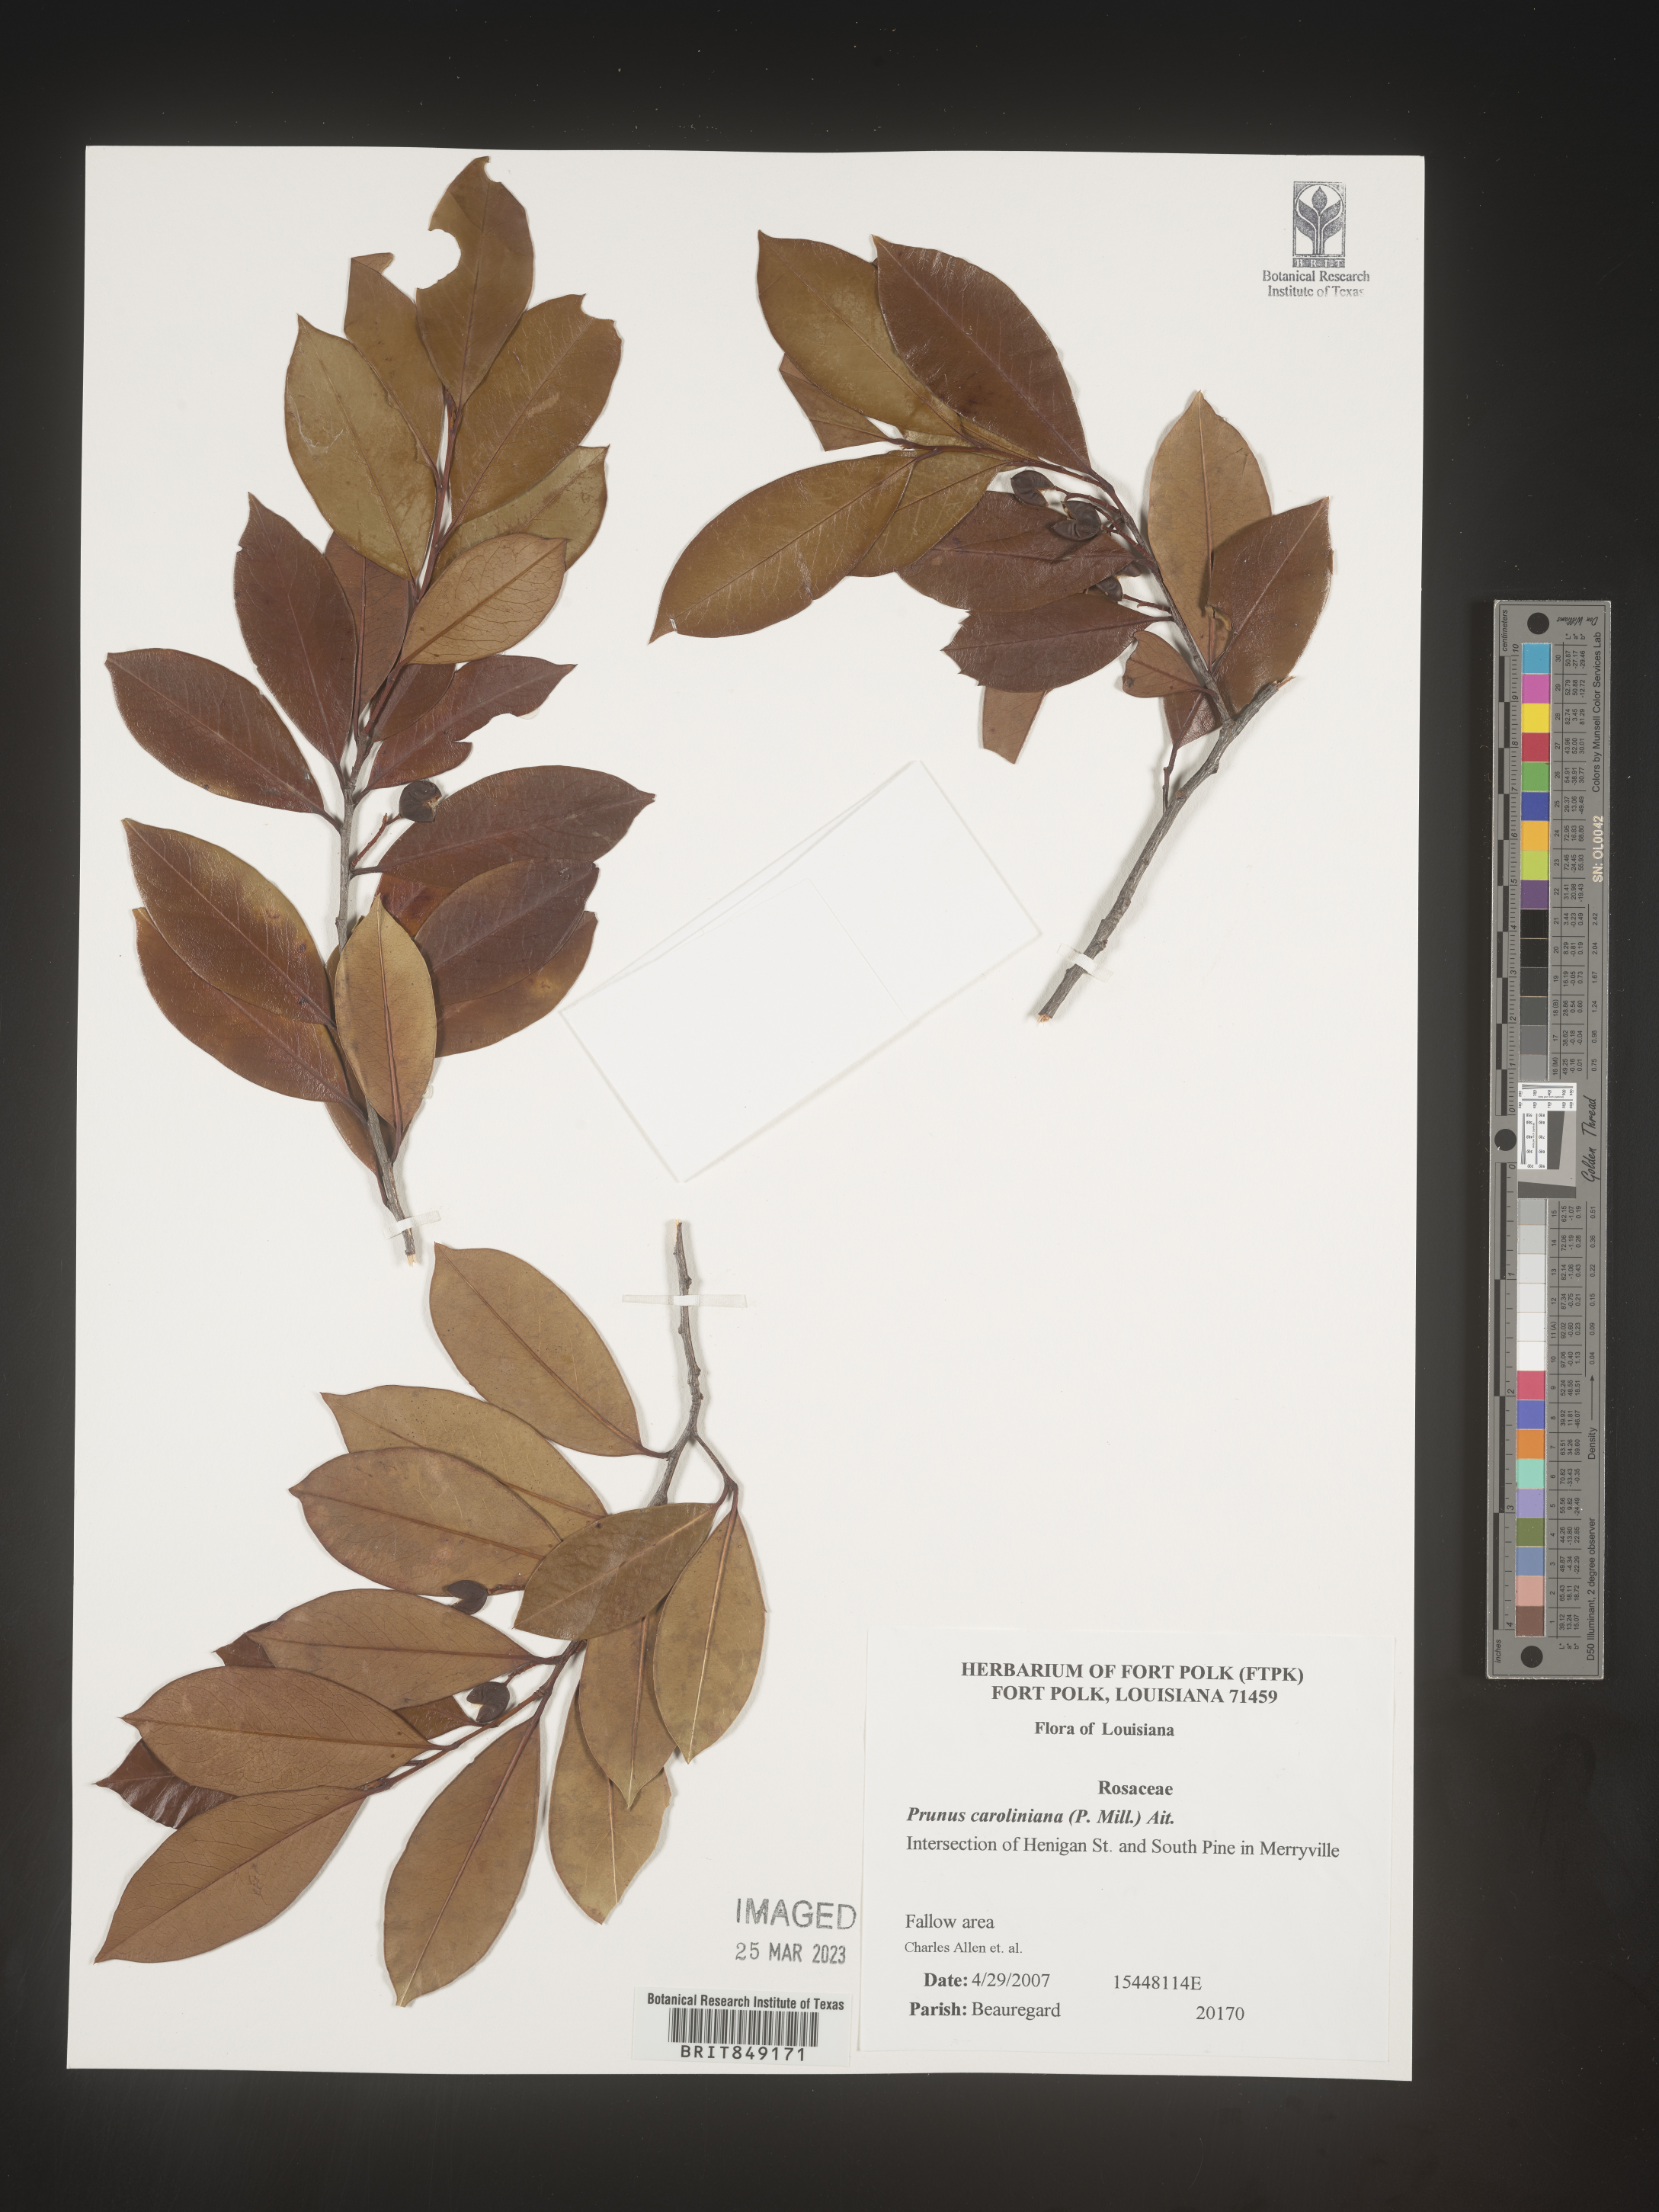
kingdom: Plantae
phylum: Tracheophyta
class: Magnoliopsida
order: Rosales
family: Rosaceae
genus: Prunus
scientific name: Prunus caroliniana
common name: Carolina laurel cherry
